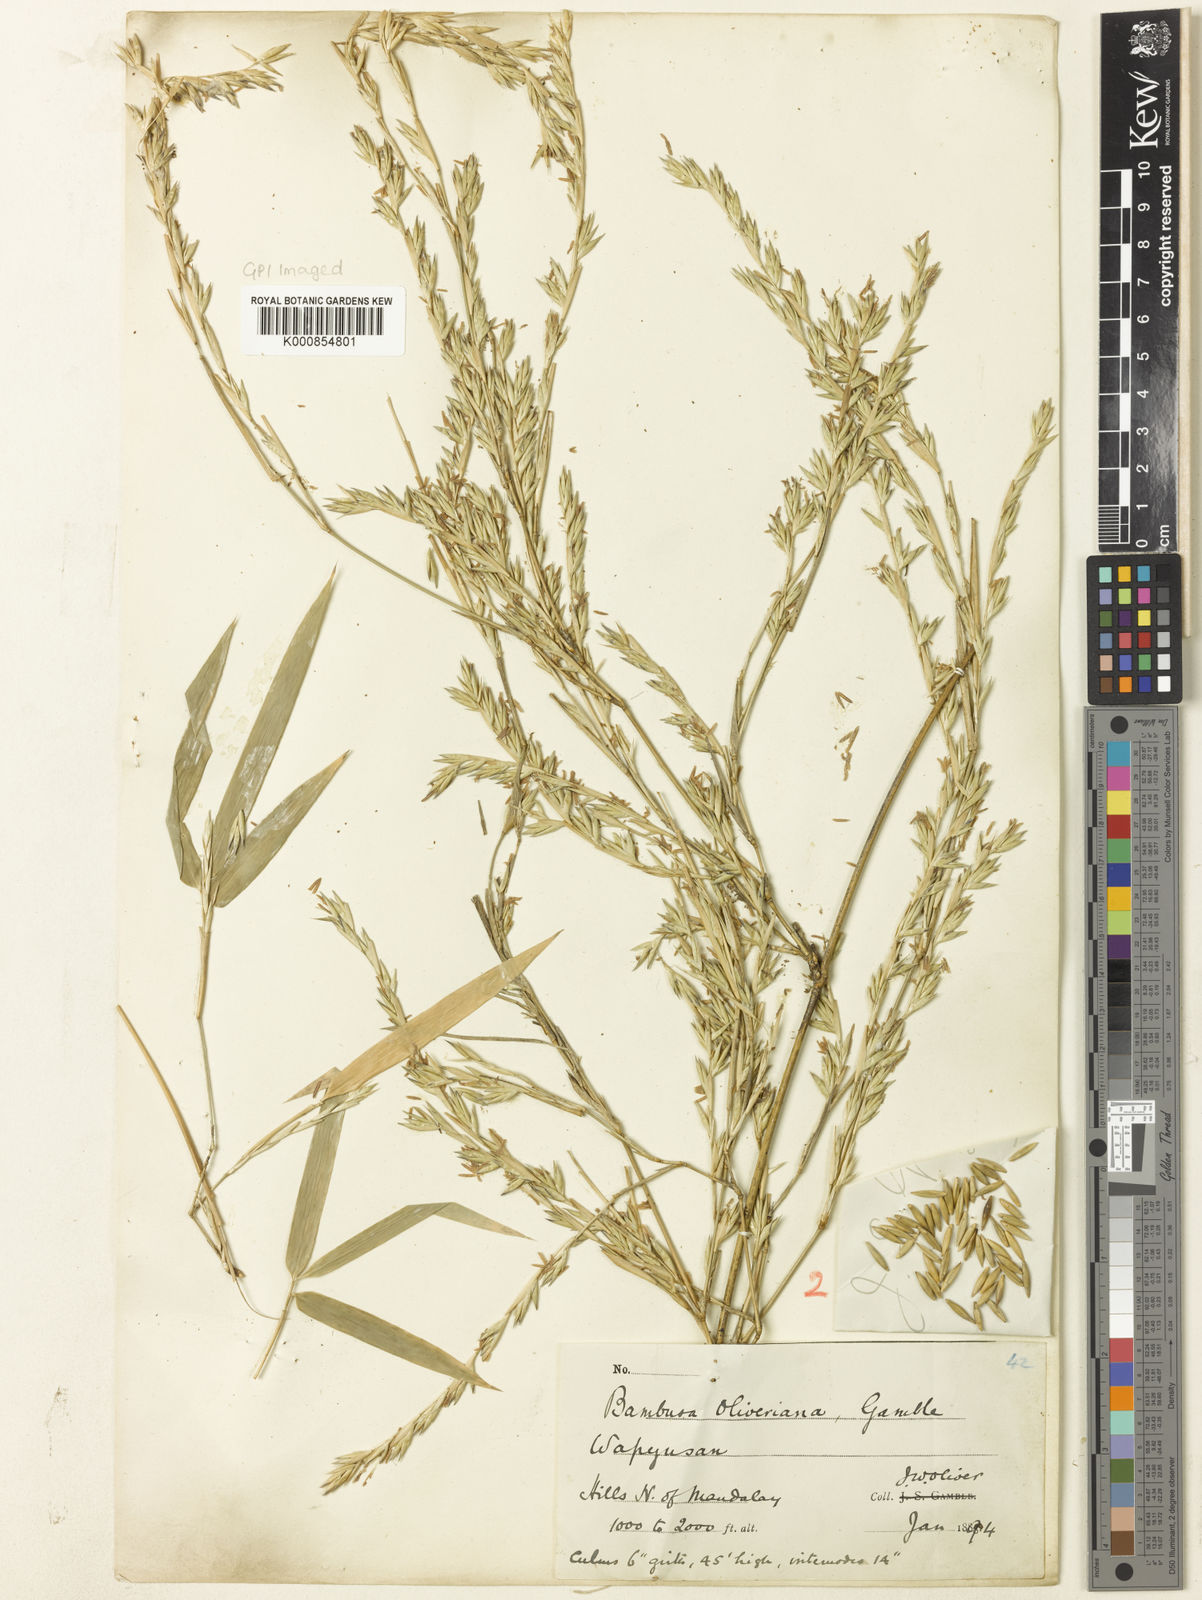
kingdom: Plantae
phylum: Tracheophyta
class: Liliopsida
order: Poales
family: Poaceae
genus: Bambusa
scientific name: Bambusa oliveriana
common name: Bush bamboo
